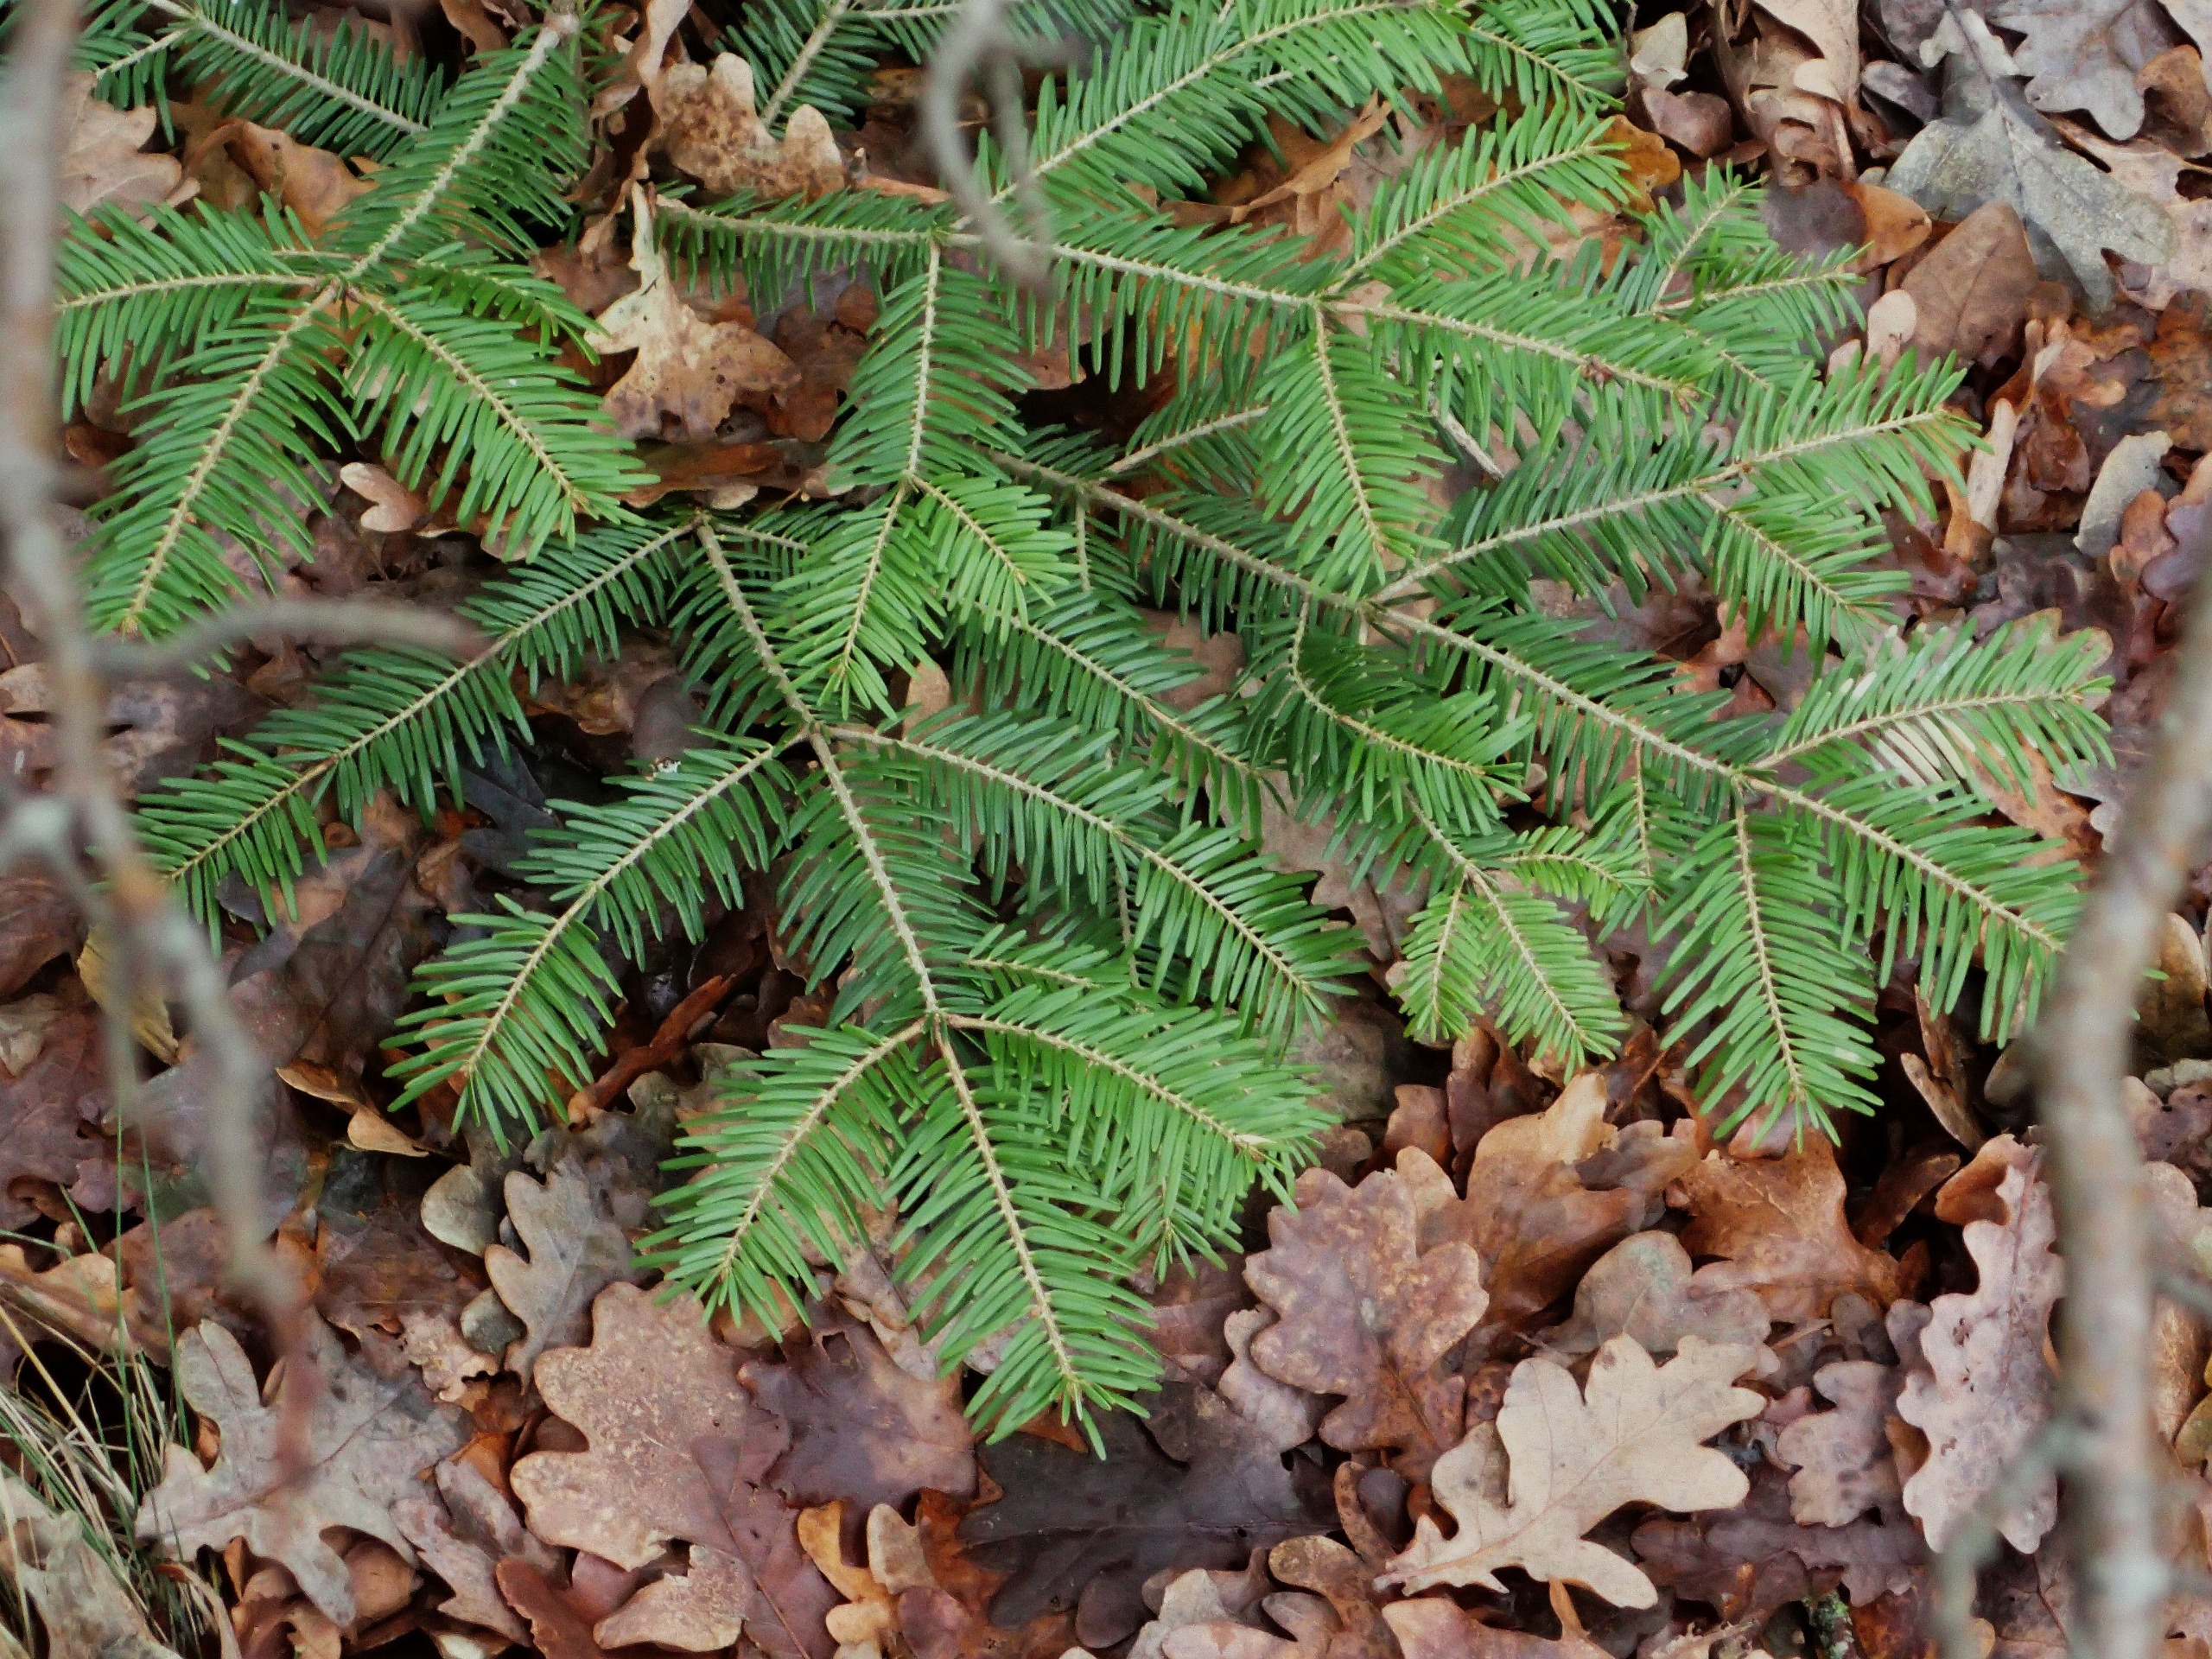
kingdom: Plantae
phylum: Tracheophyta
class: Pinopsida
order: Pinales
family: Pinaceae
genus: Abies
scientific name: Abies alba
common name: Almindelig ædelgran
